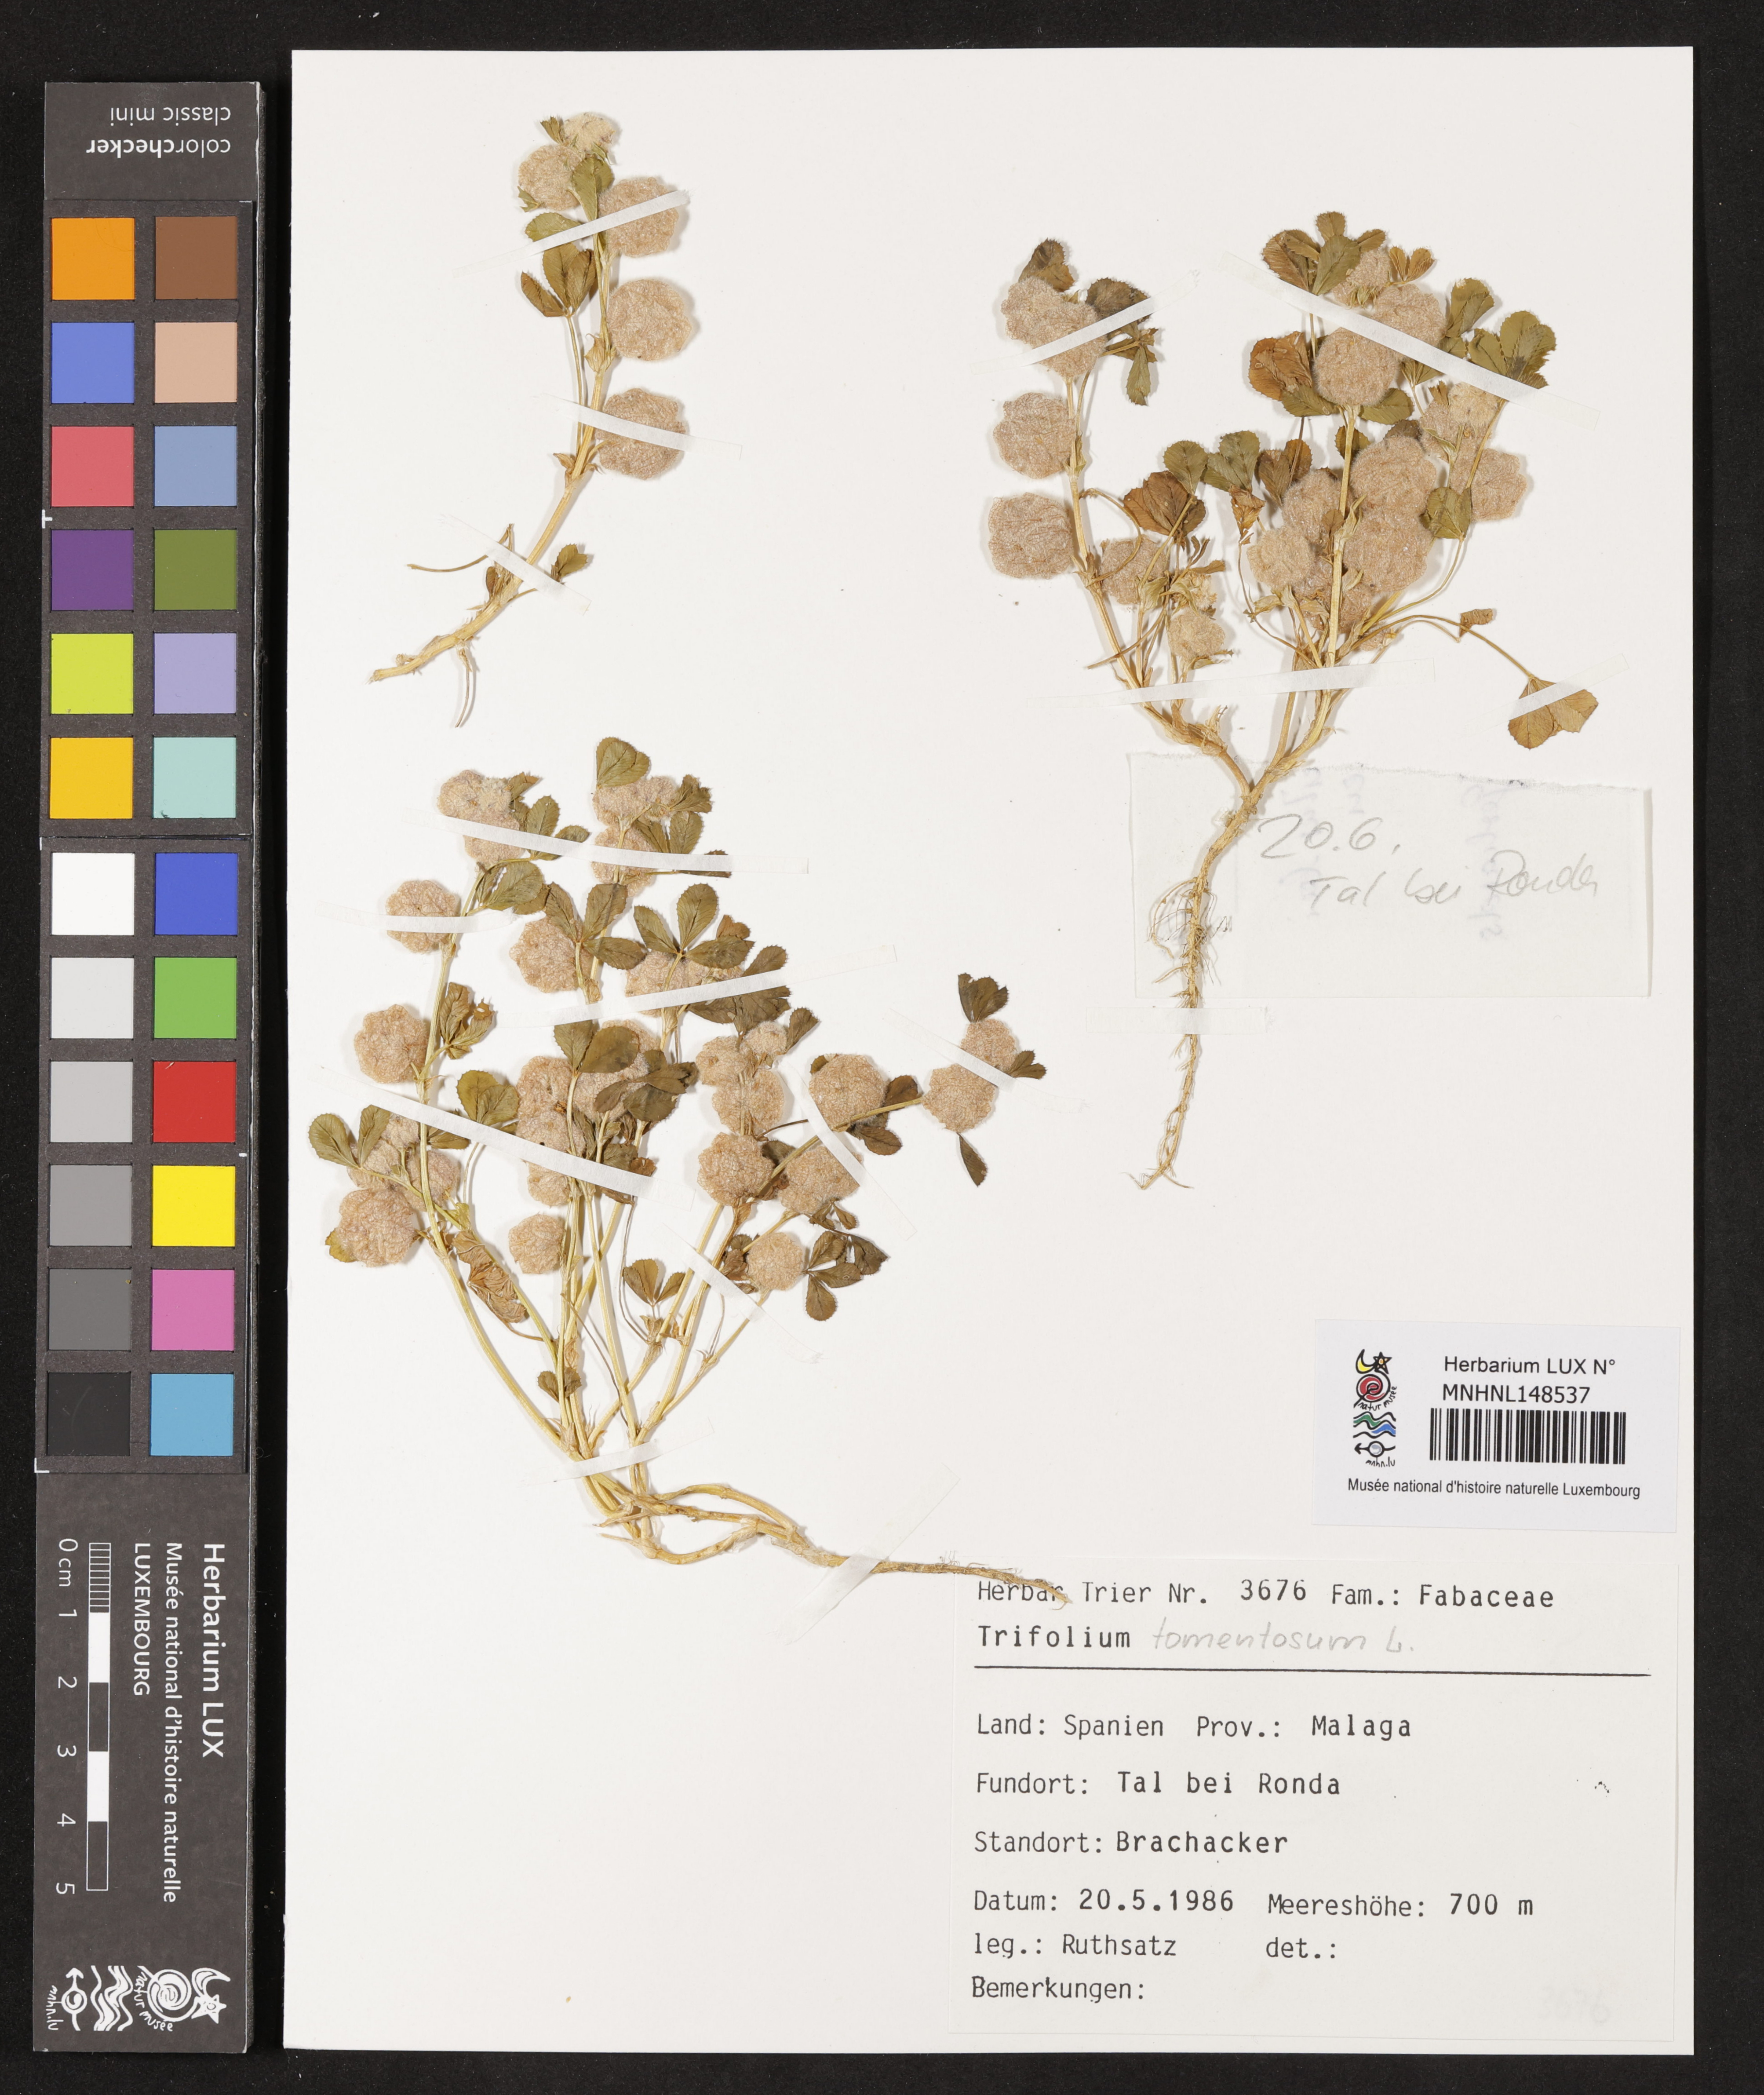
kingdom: Plantae
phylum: Tracheophyta
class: Magnoliopsida
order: Fabales
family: Fabaceae
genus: Trifolium
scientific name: Trifolium tomentosum
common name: Woolly clover
